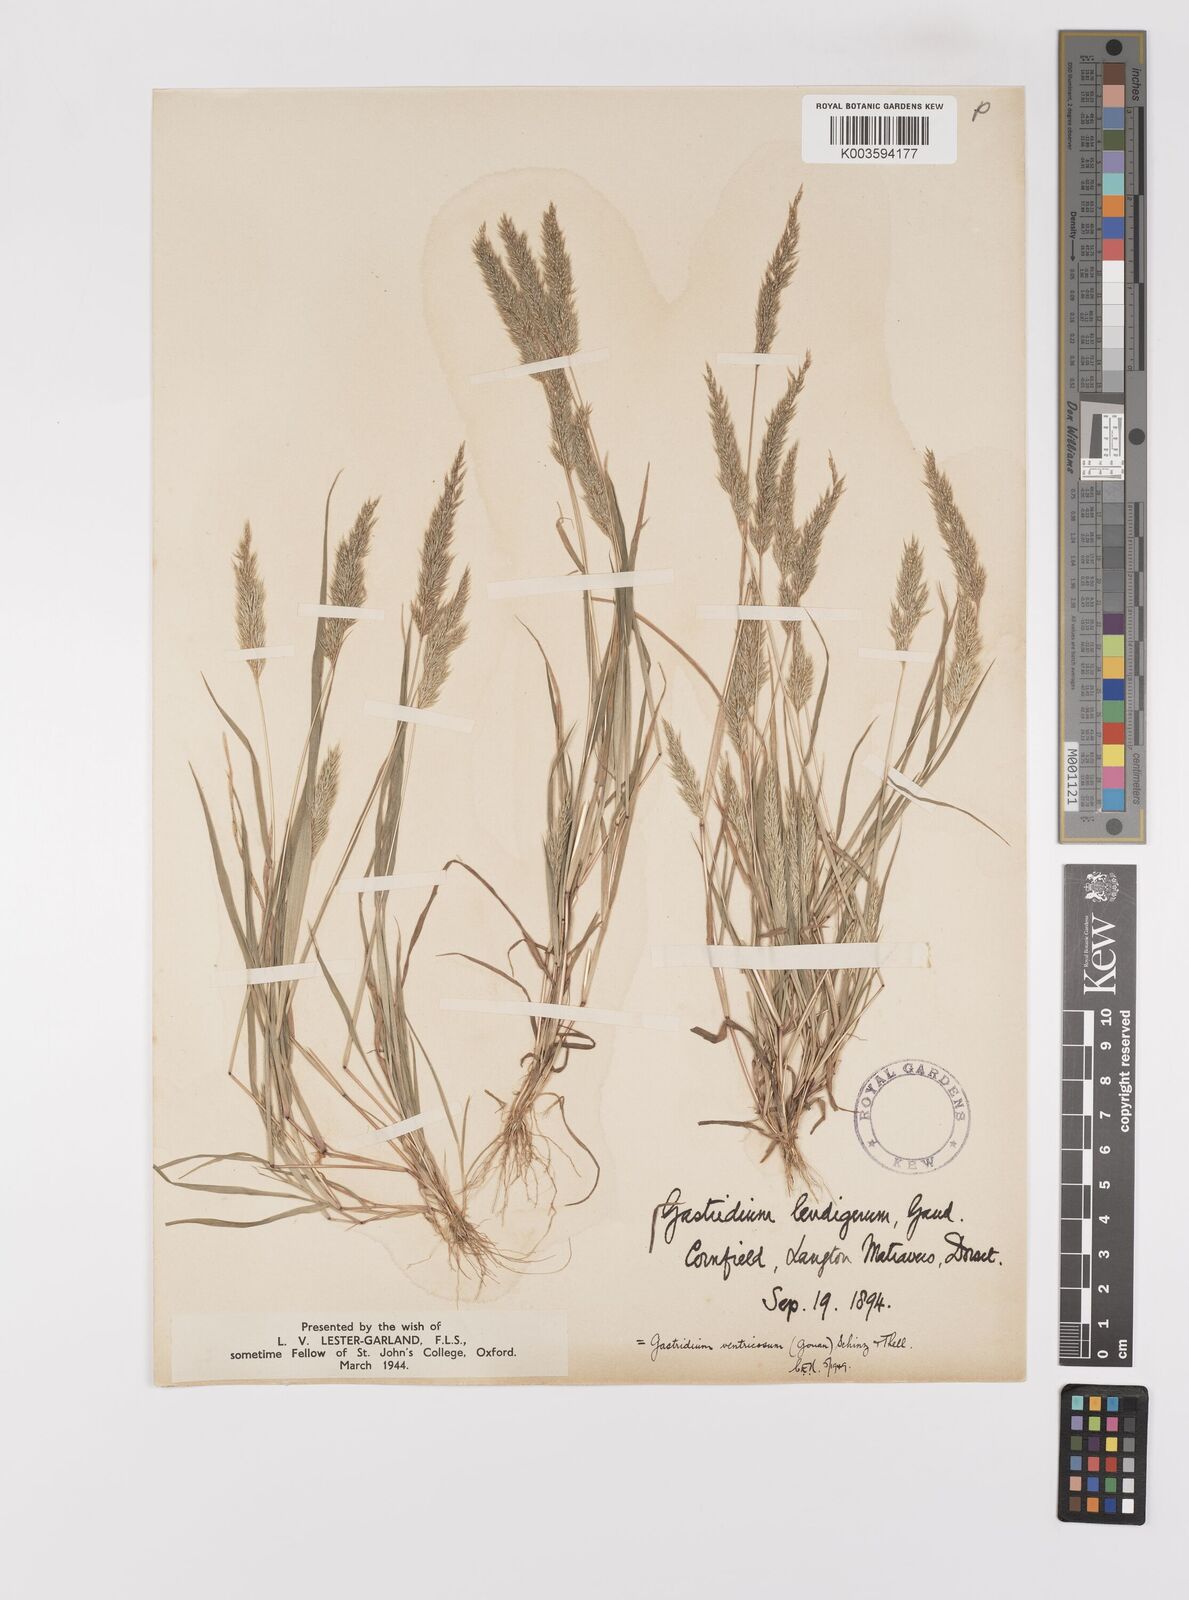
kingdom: Plantae
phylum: Tracheophyta
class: Liliopsida
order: Poales
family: Poaceae
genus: Gastridium
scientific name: Gastridium ventricosum
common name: Nit-grass
